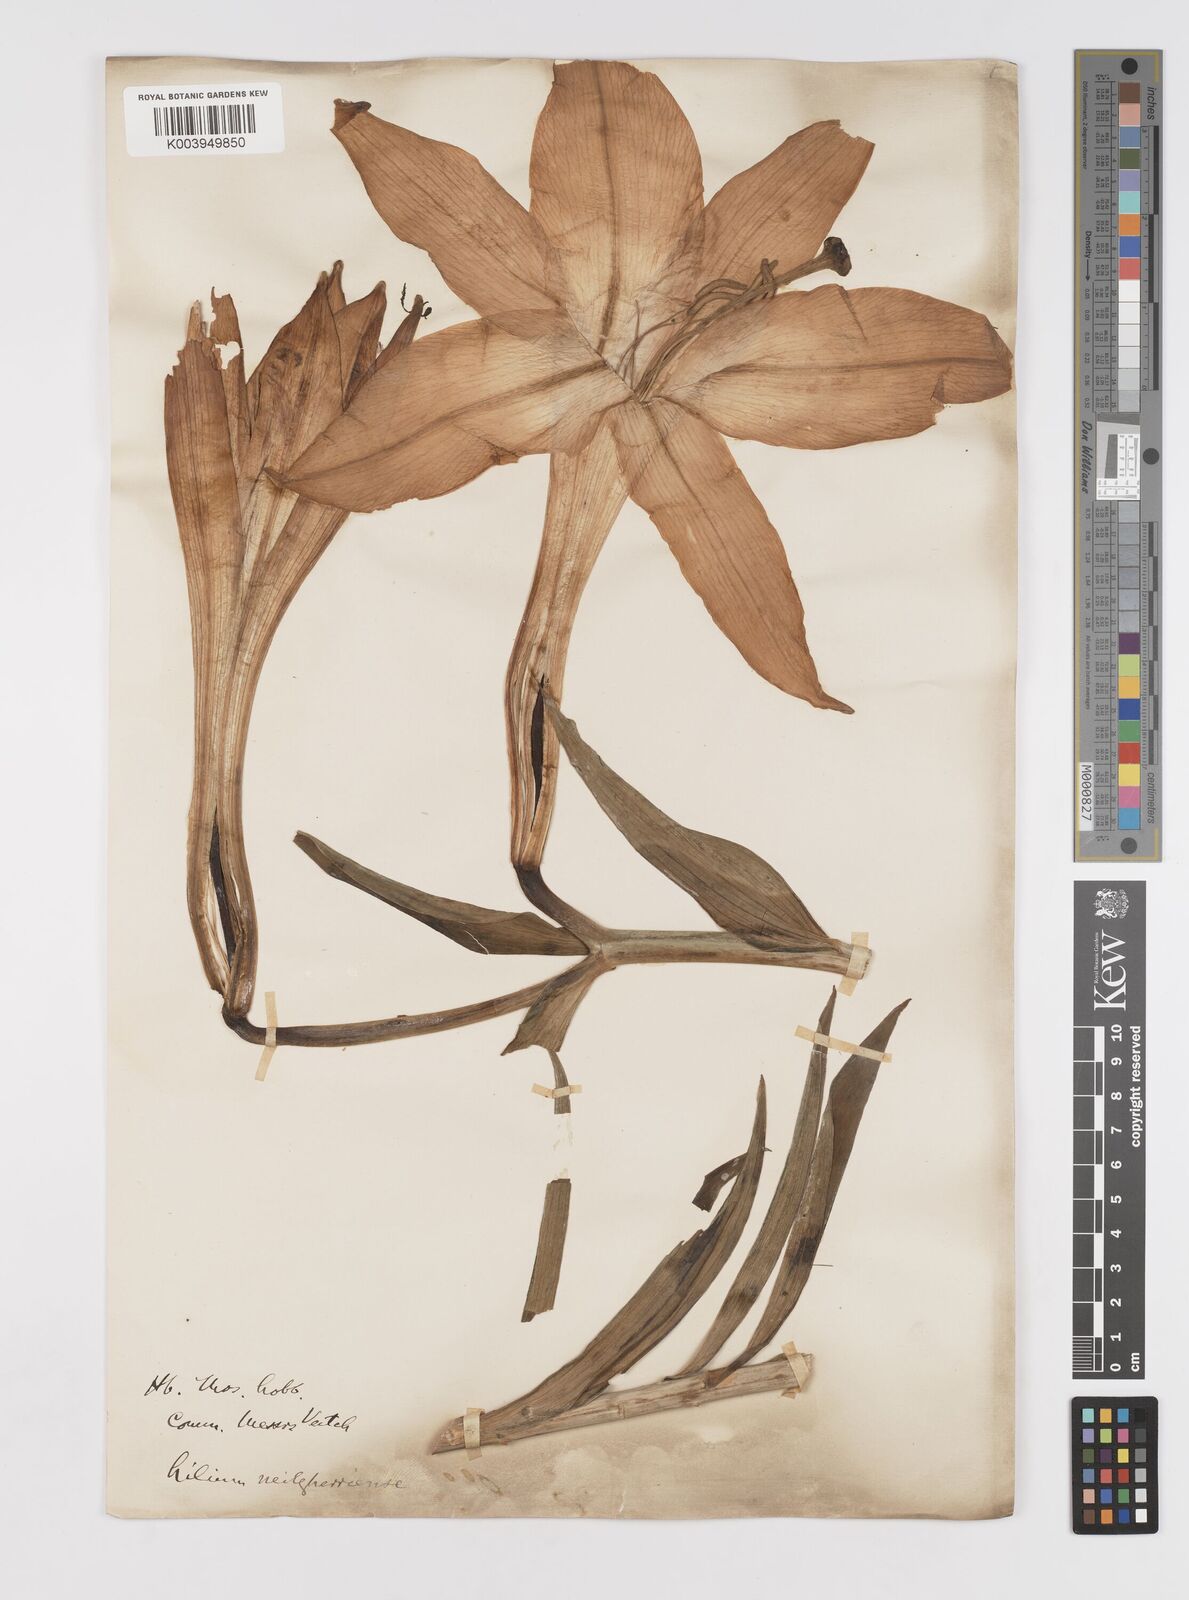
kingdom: Plantae
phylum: Tracheophyta
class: Liliopsida
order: Liliales
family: Liliaceae
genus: Lilium
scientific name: Lilium wallichianum
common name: Wallich's lily
